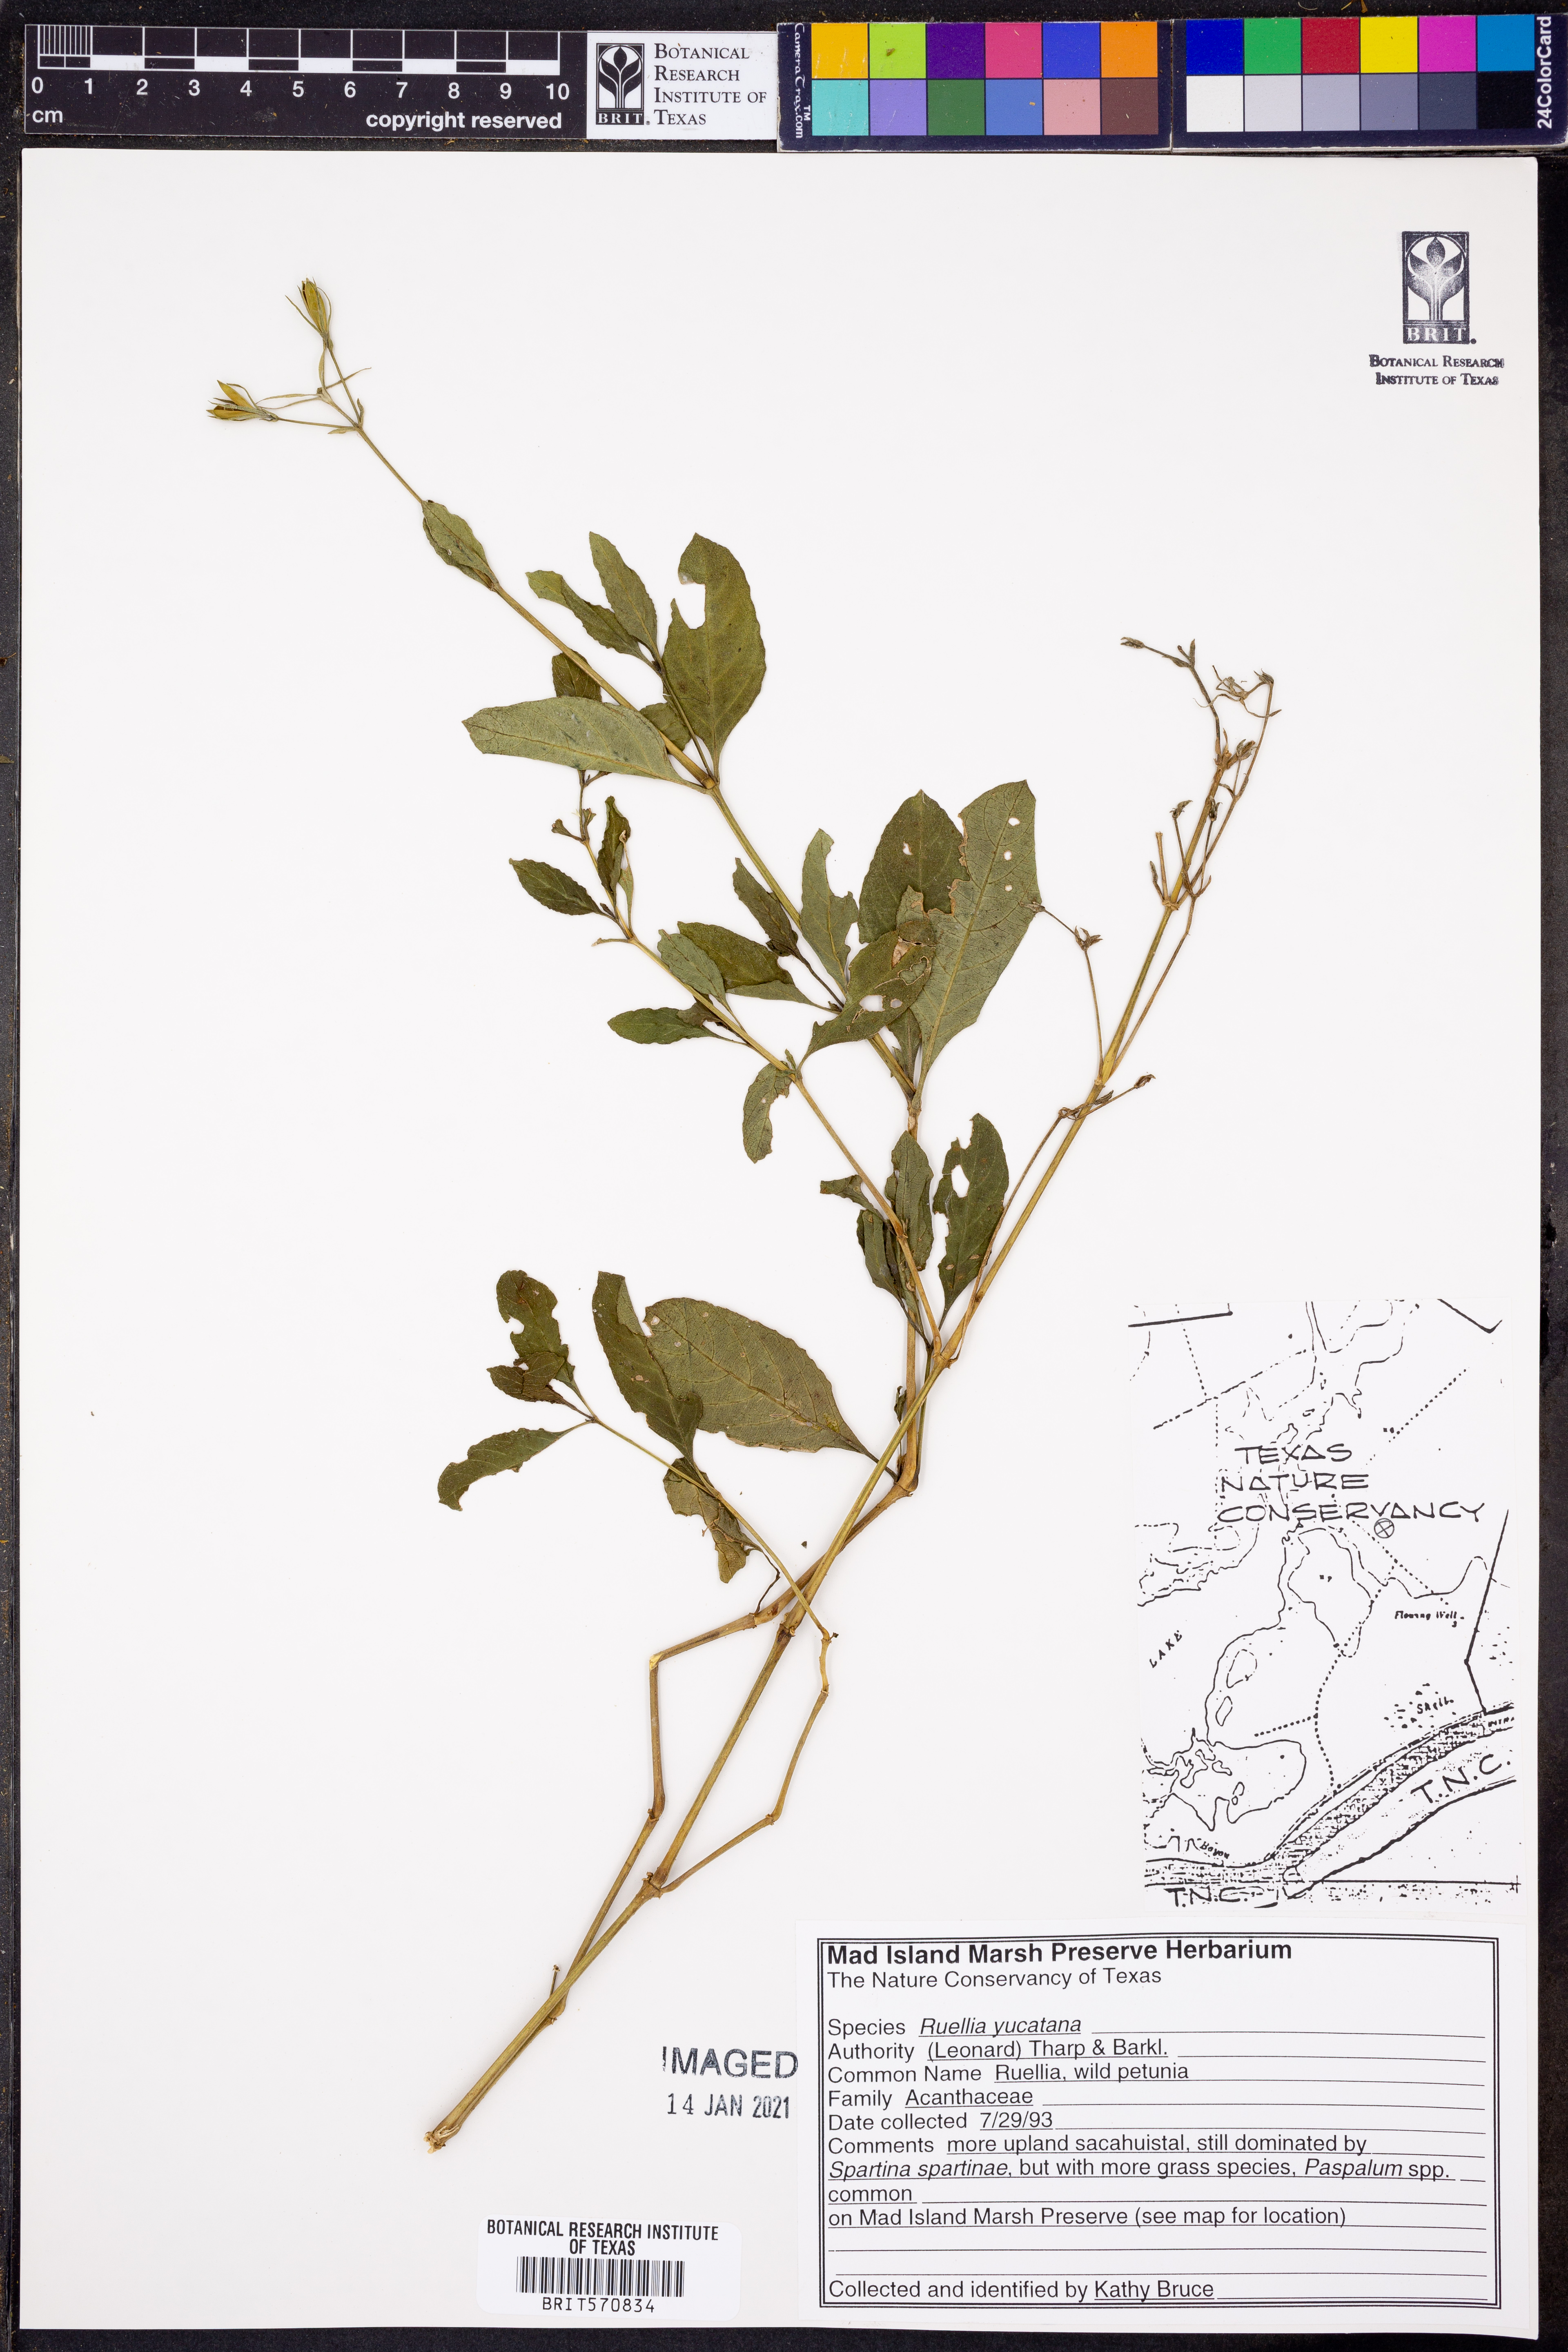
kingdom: Plantae
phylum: Tracheophyta
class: Magnoliopsida
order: Lamiales
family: Acanthaceae
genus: Ruellia
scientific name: Ruellia ciliatiflora
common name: Hairyflower wild petunia
